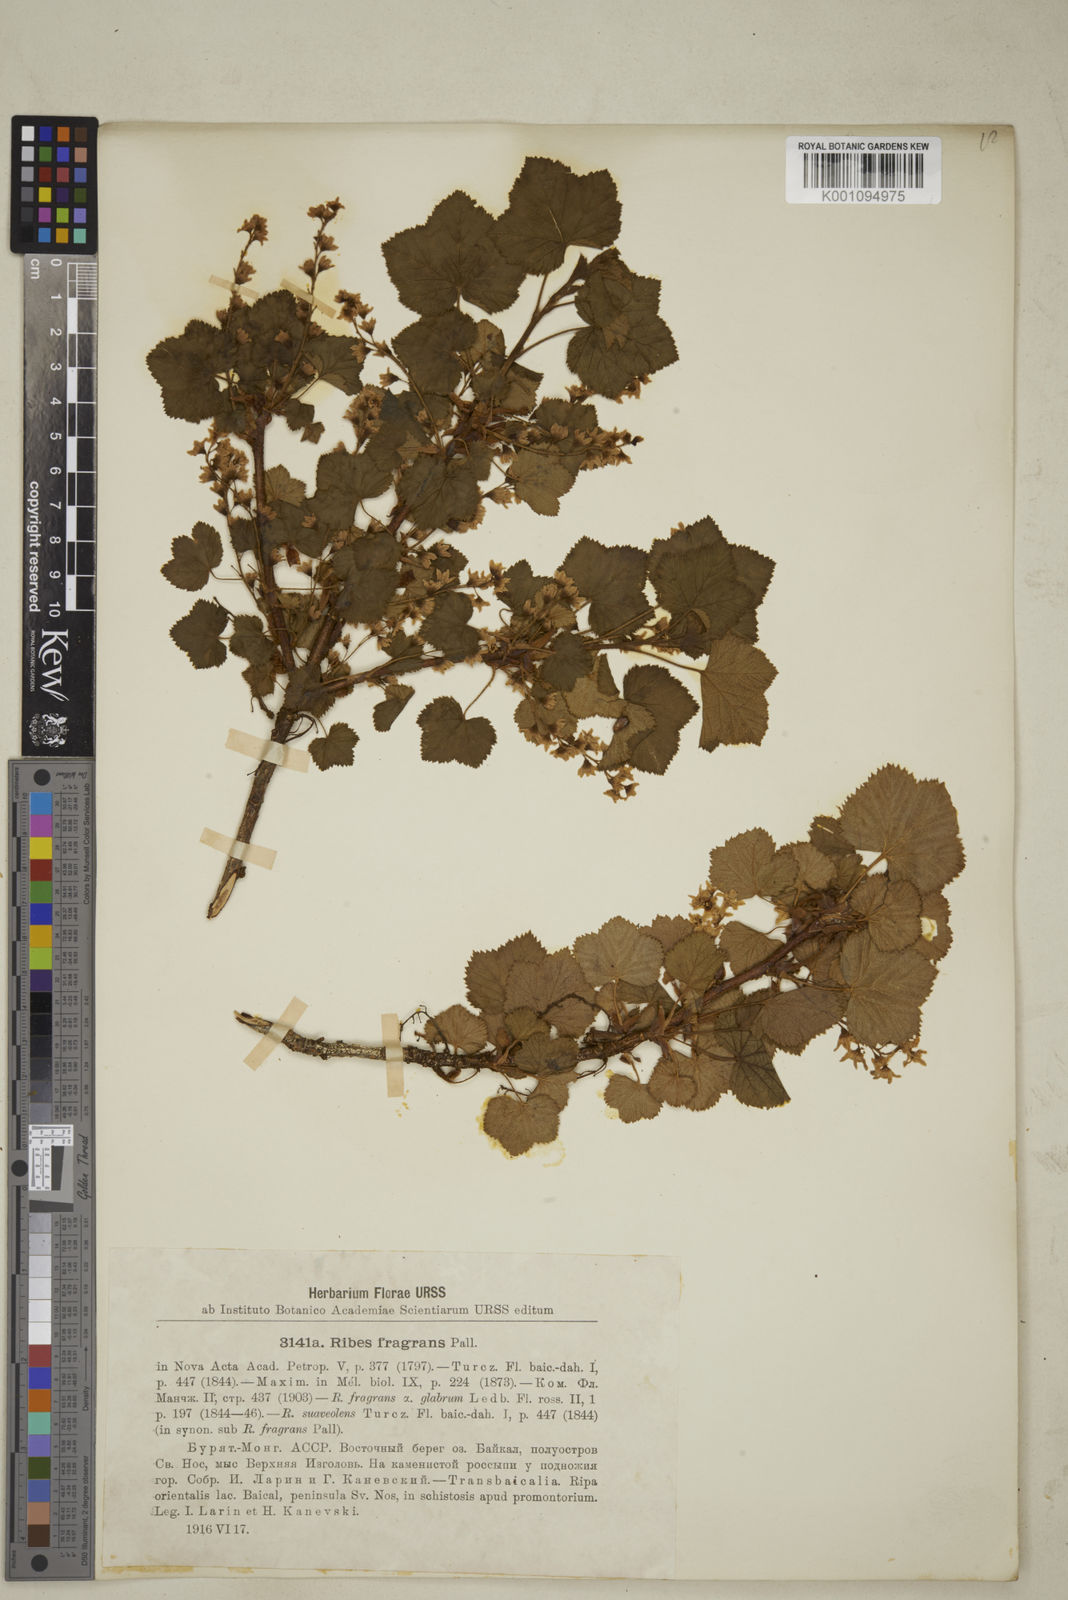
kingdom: Plantae
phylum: Tracheophyta
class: Magnoliopsida
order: Saxifragales
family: Grossulariaceae
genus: Ribes
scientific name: Ribes
